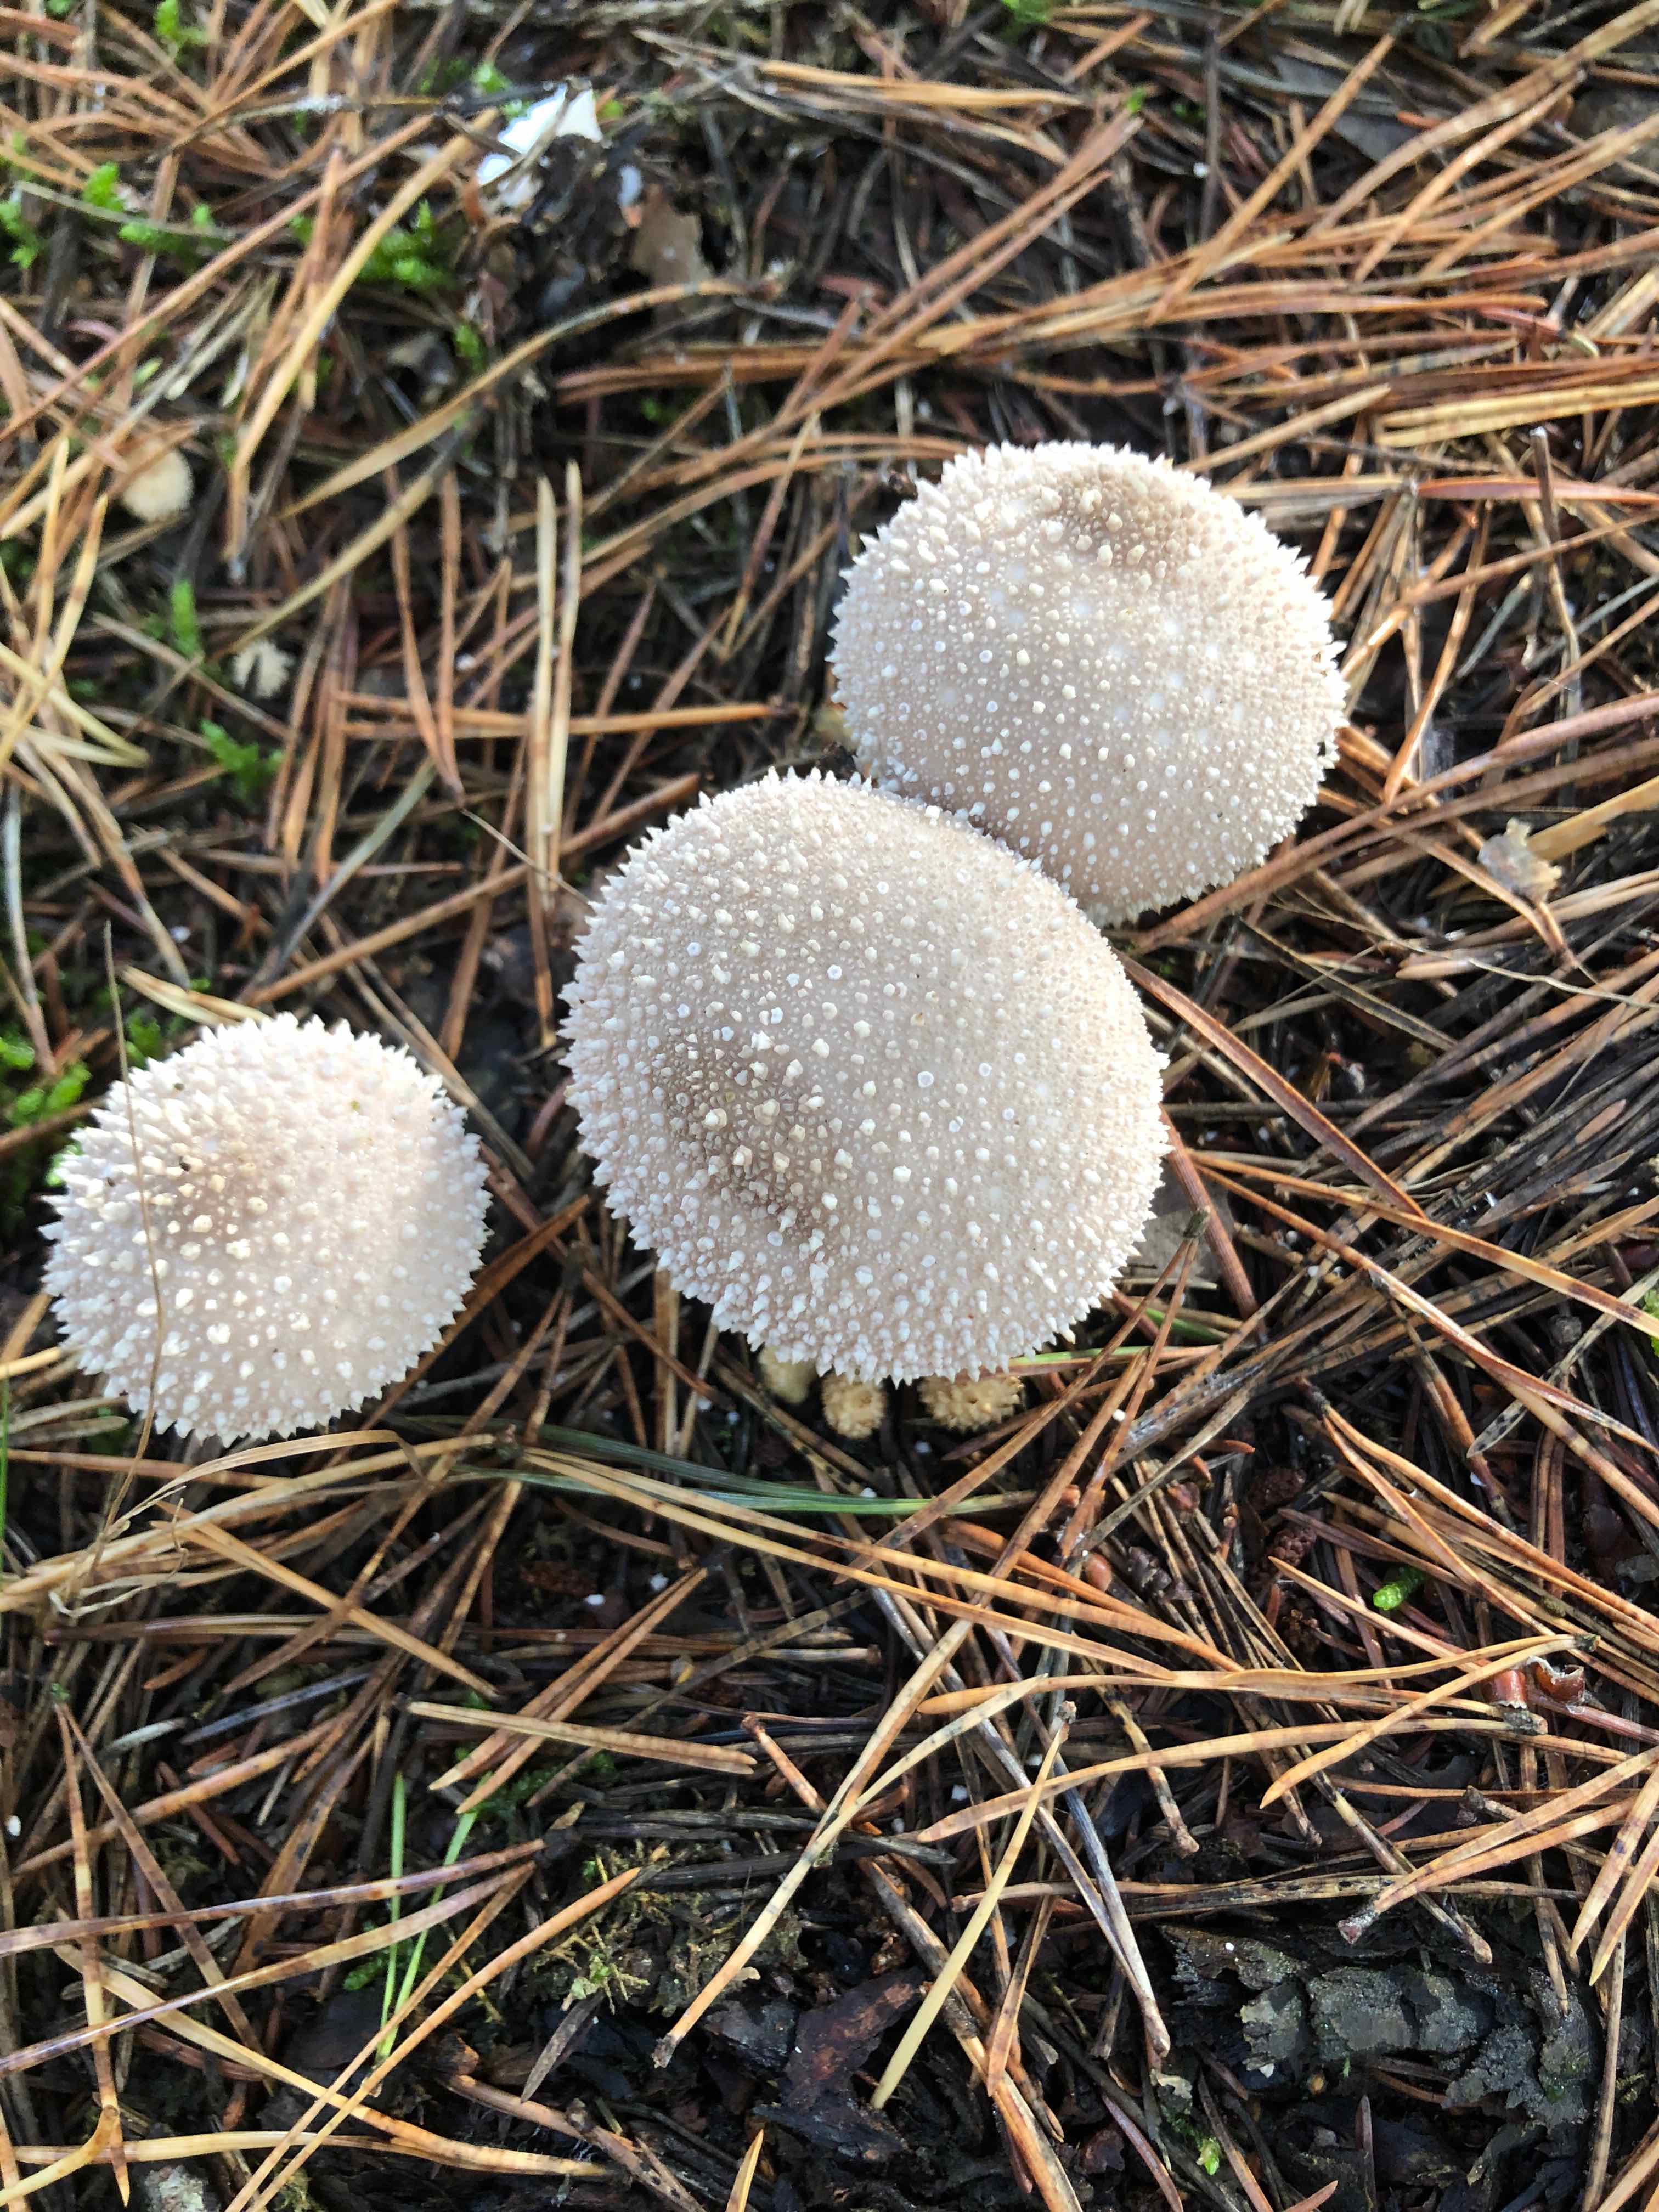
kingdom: Fungi
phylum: Basidiomycota
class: Agaricomycetes
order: Agaricales
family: Lycoperdaceae
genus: Lycoperdon
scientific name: Lycoperdon perlatum
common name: krystal-støvbold
